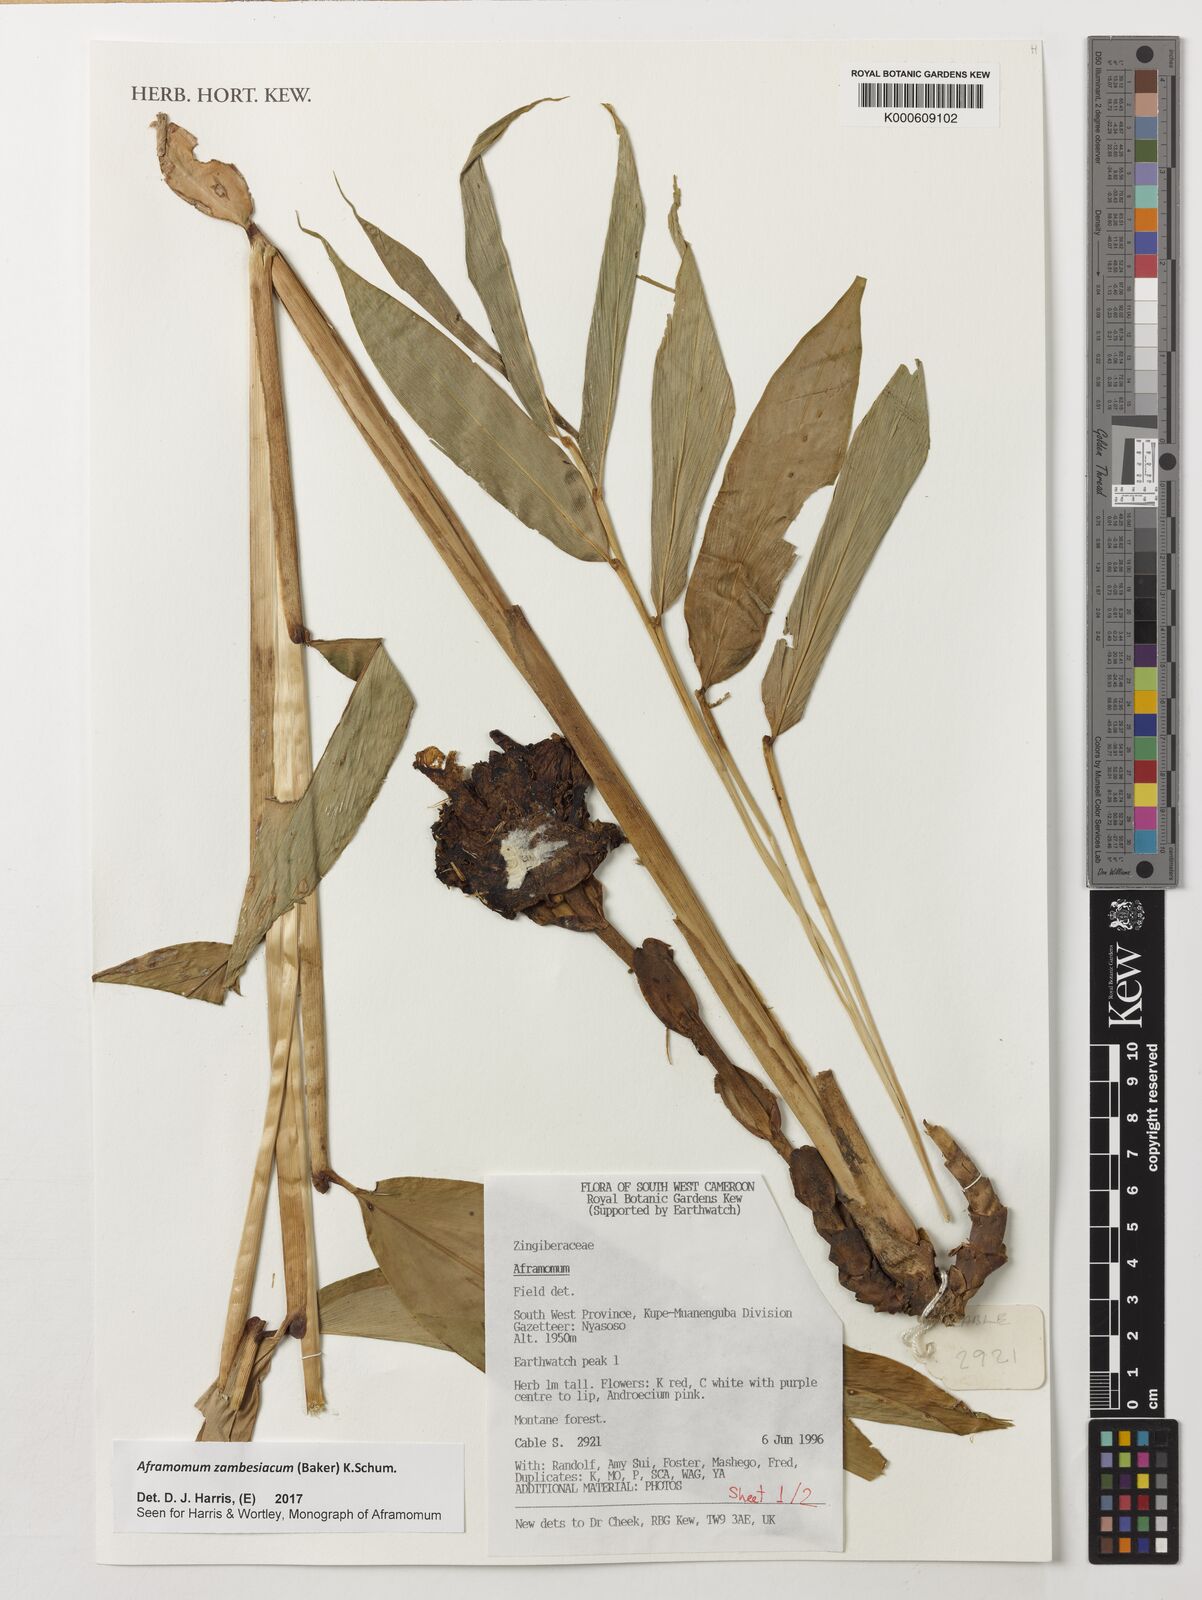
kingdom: Plantae
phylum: Tracheophyta
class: Liliopsida
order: Zingiberales
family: Zingiberaceae
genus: Aframomum
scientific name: Aframomum zambesiacum
